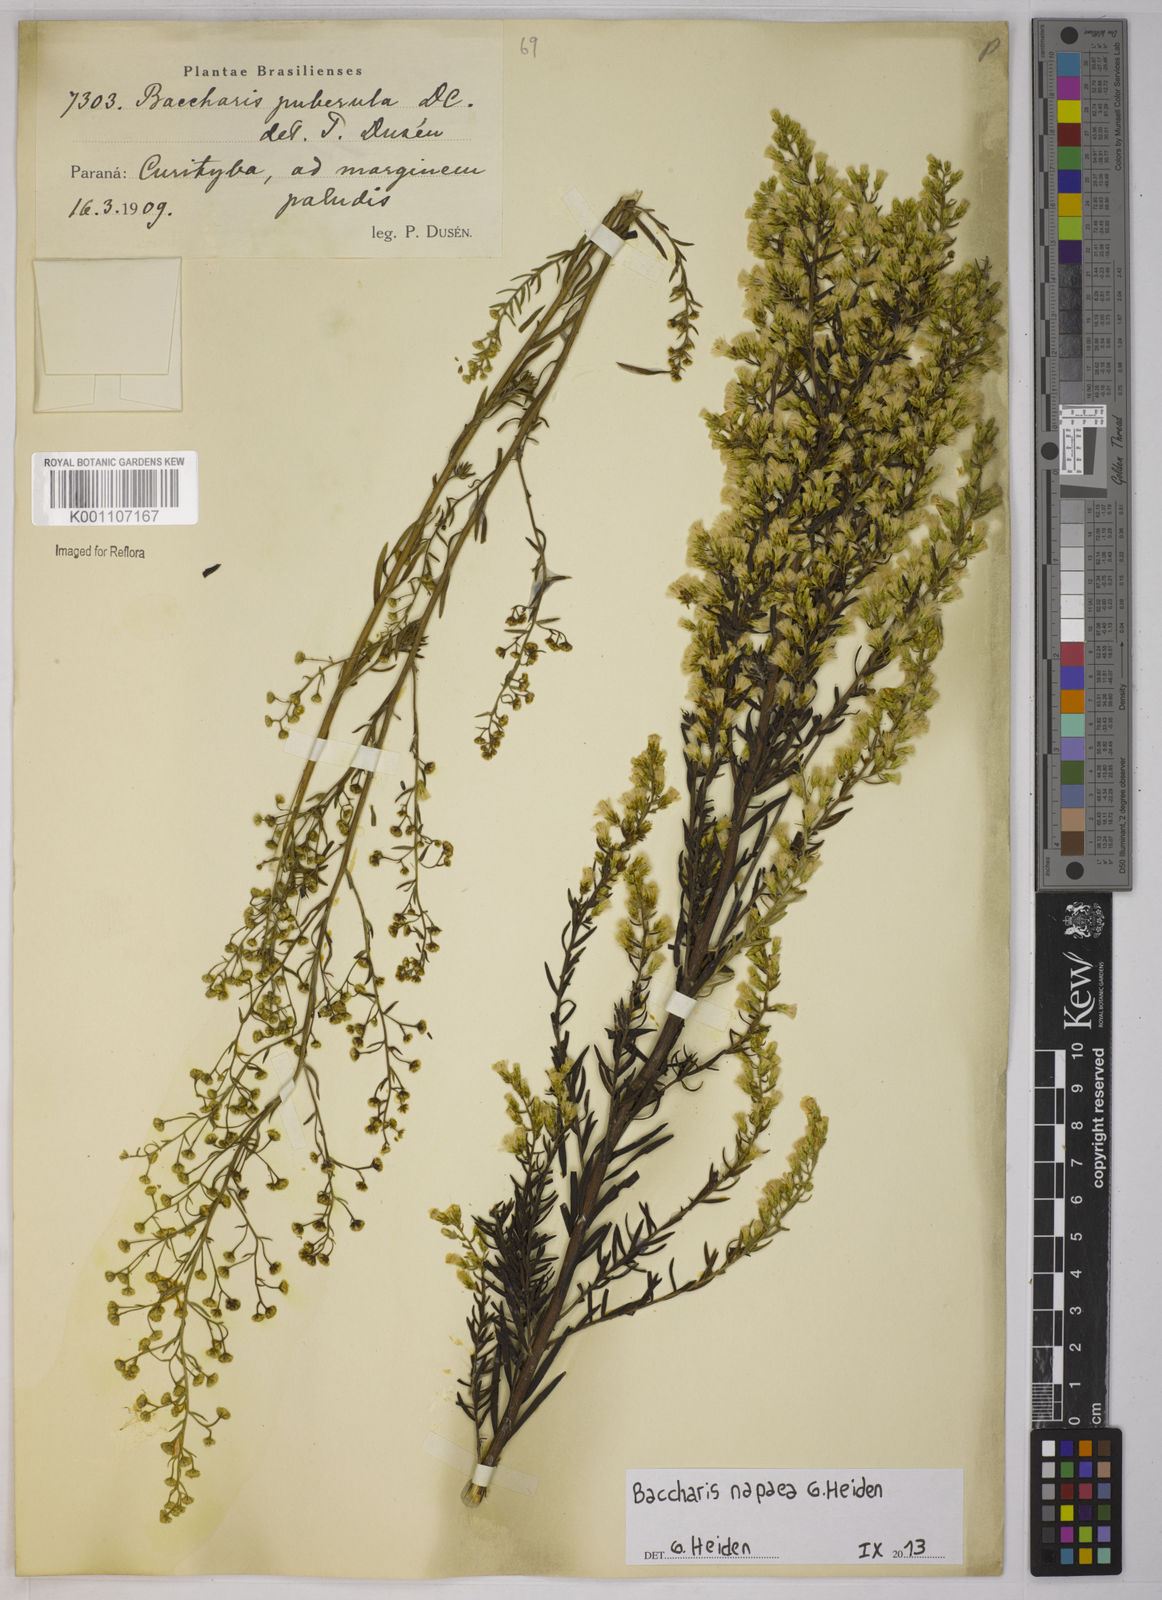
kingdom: Plantae
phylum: Tracheophyta
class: Magnoliopsida
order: Asterales
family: Asteraceae
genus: Baccharis
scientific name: Baccharis napaea
